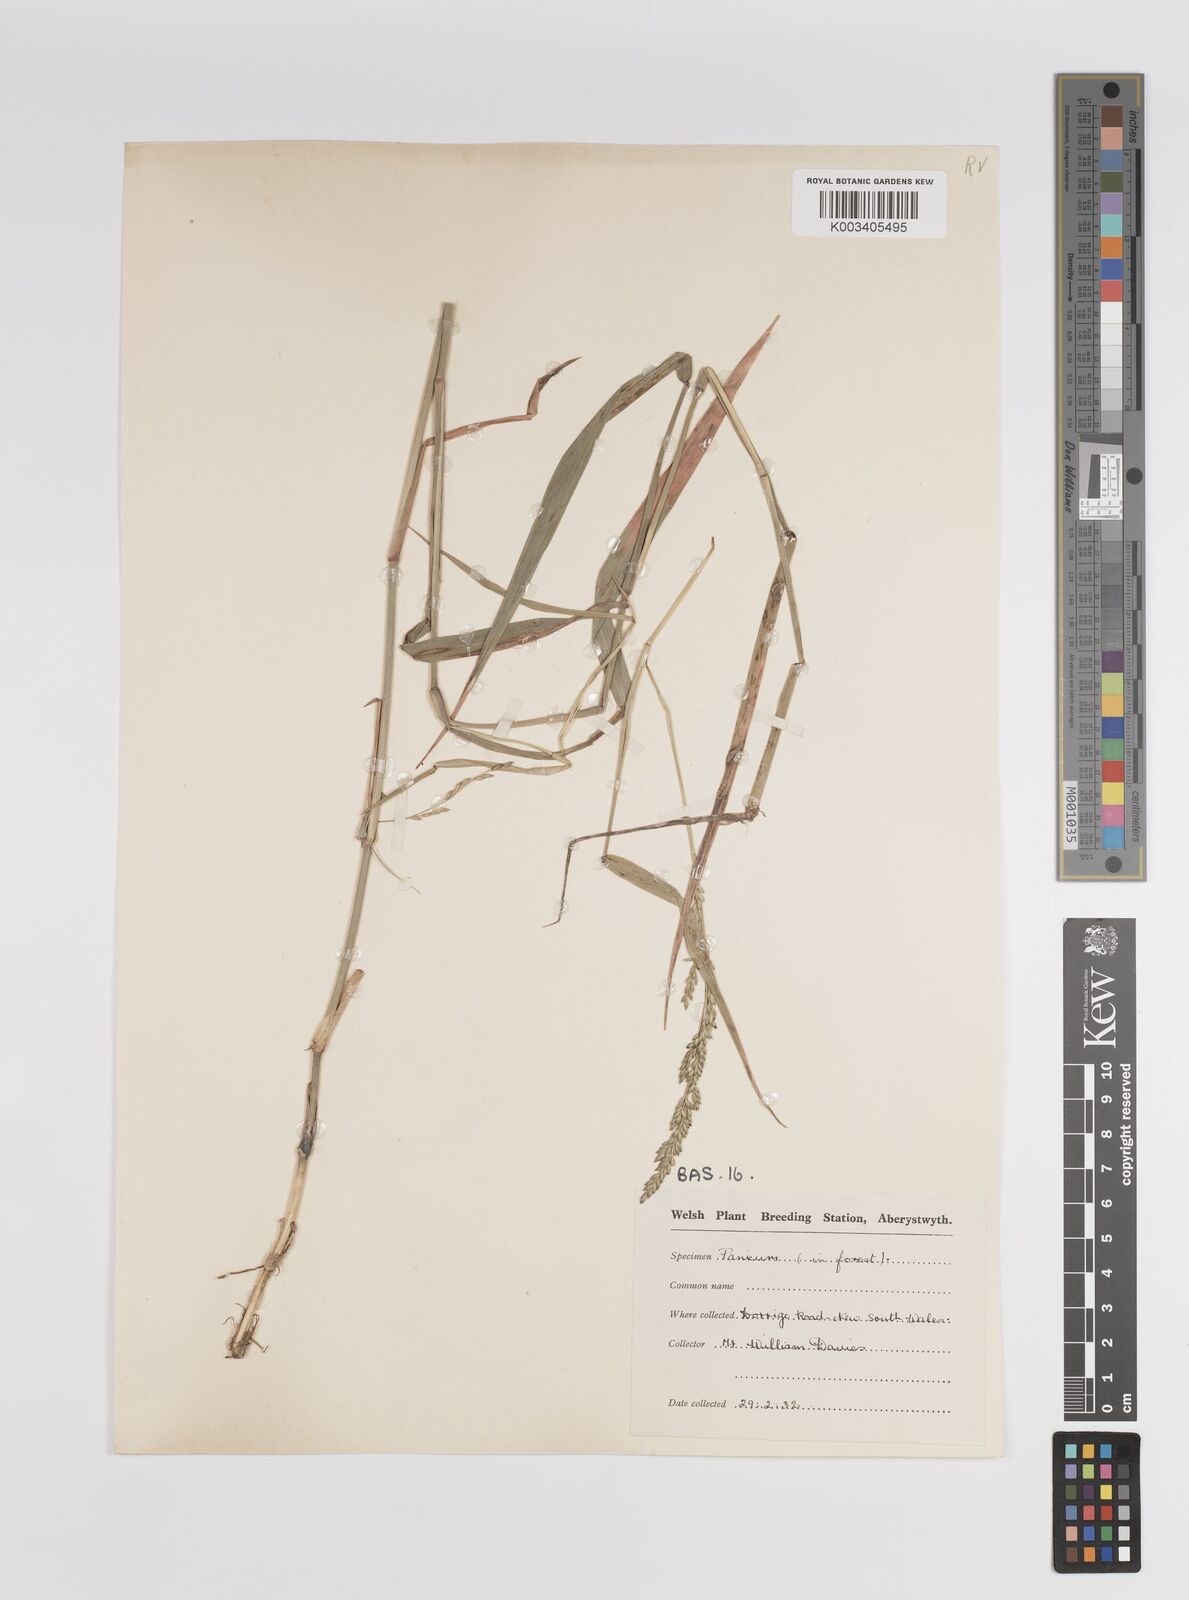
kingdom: Plantae
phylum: Tracheophyta
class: Liliopsida
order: Poales
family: Poaceae
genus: Panicum
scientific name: Panicum
